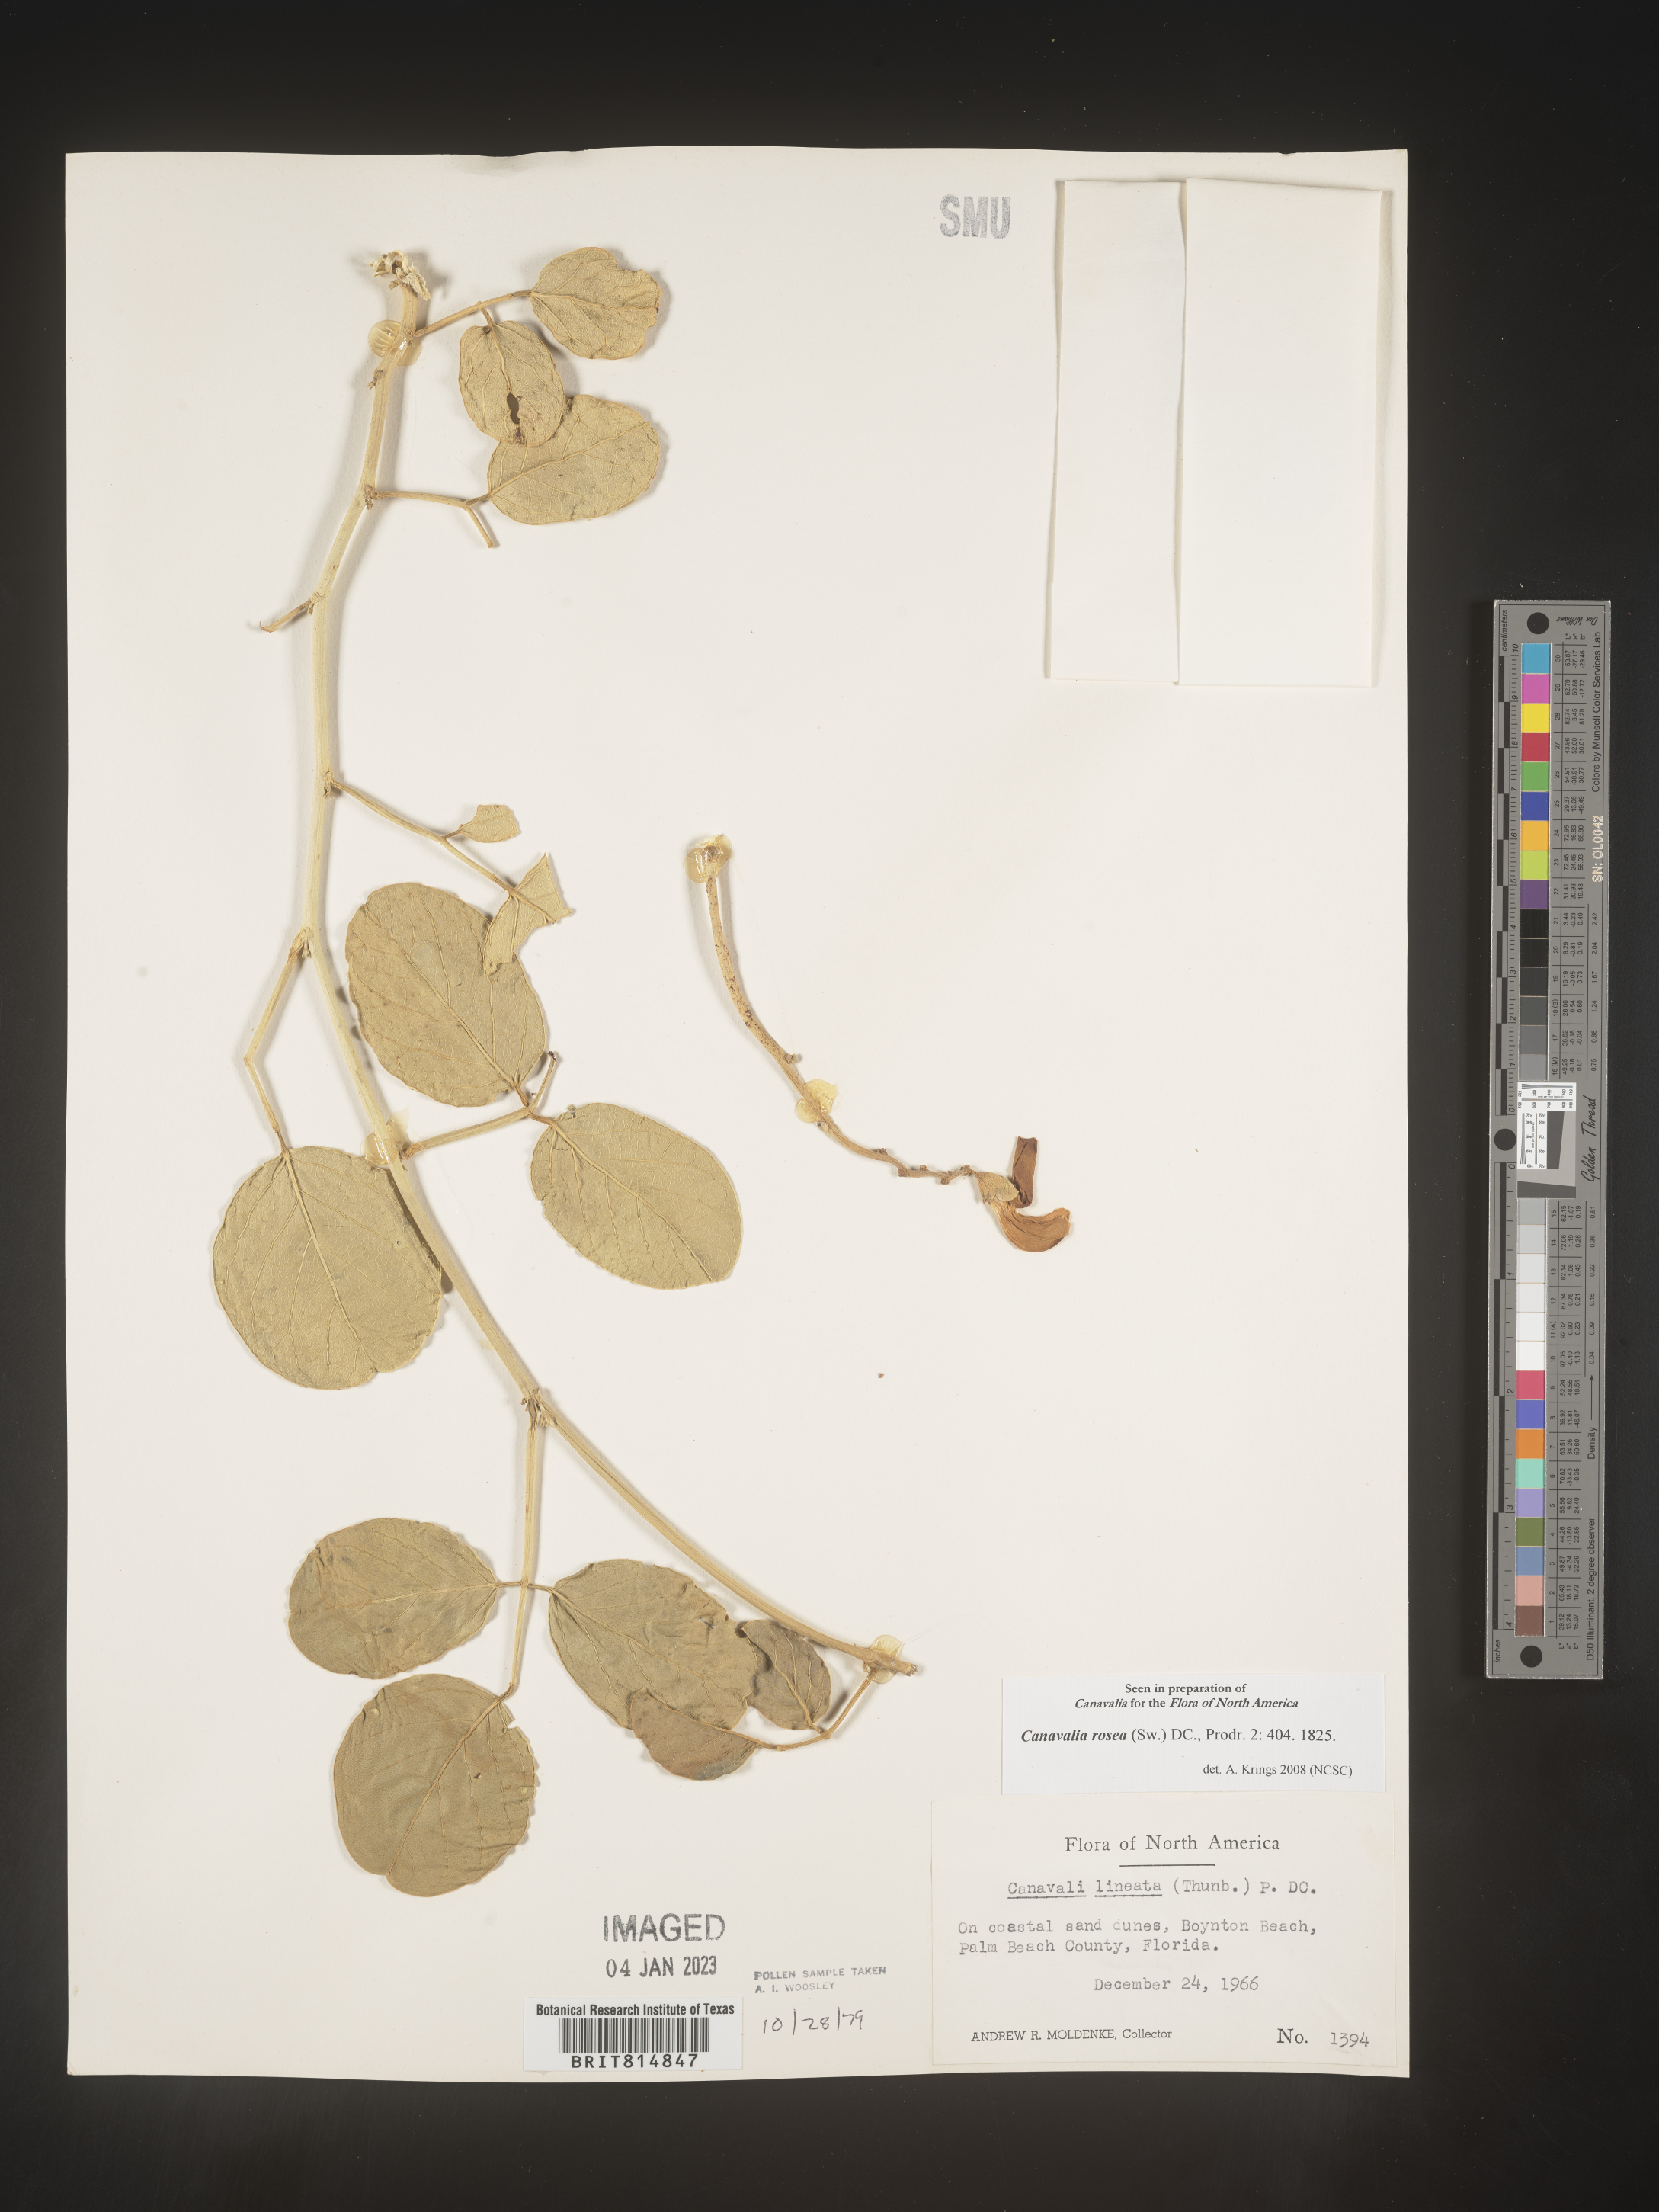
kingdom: Plantae
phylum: Tracheophyta
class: Magnoliopsida
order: Fabales
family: Fabaceae
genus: Canavalia
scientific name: Canavalia
